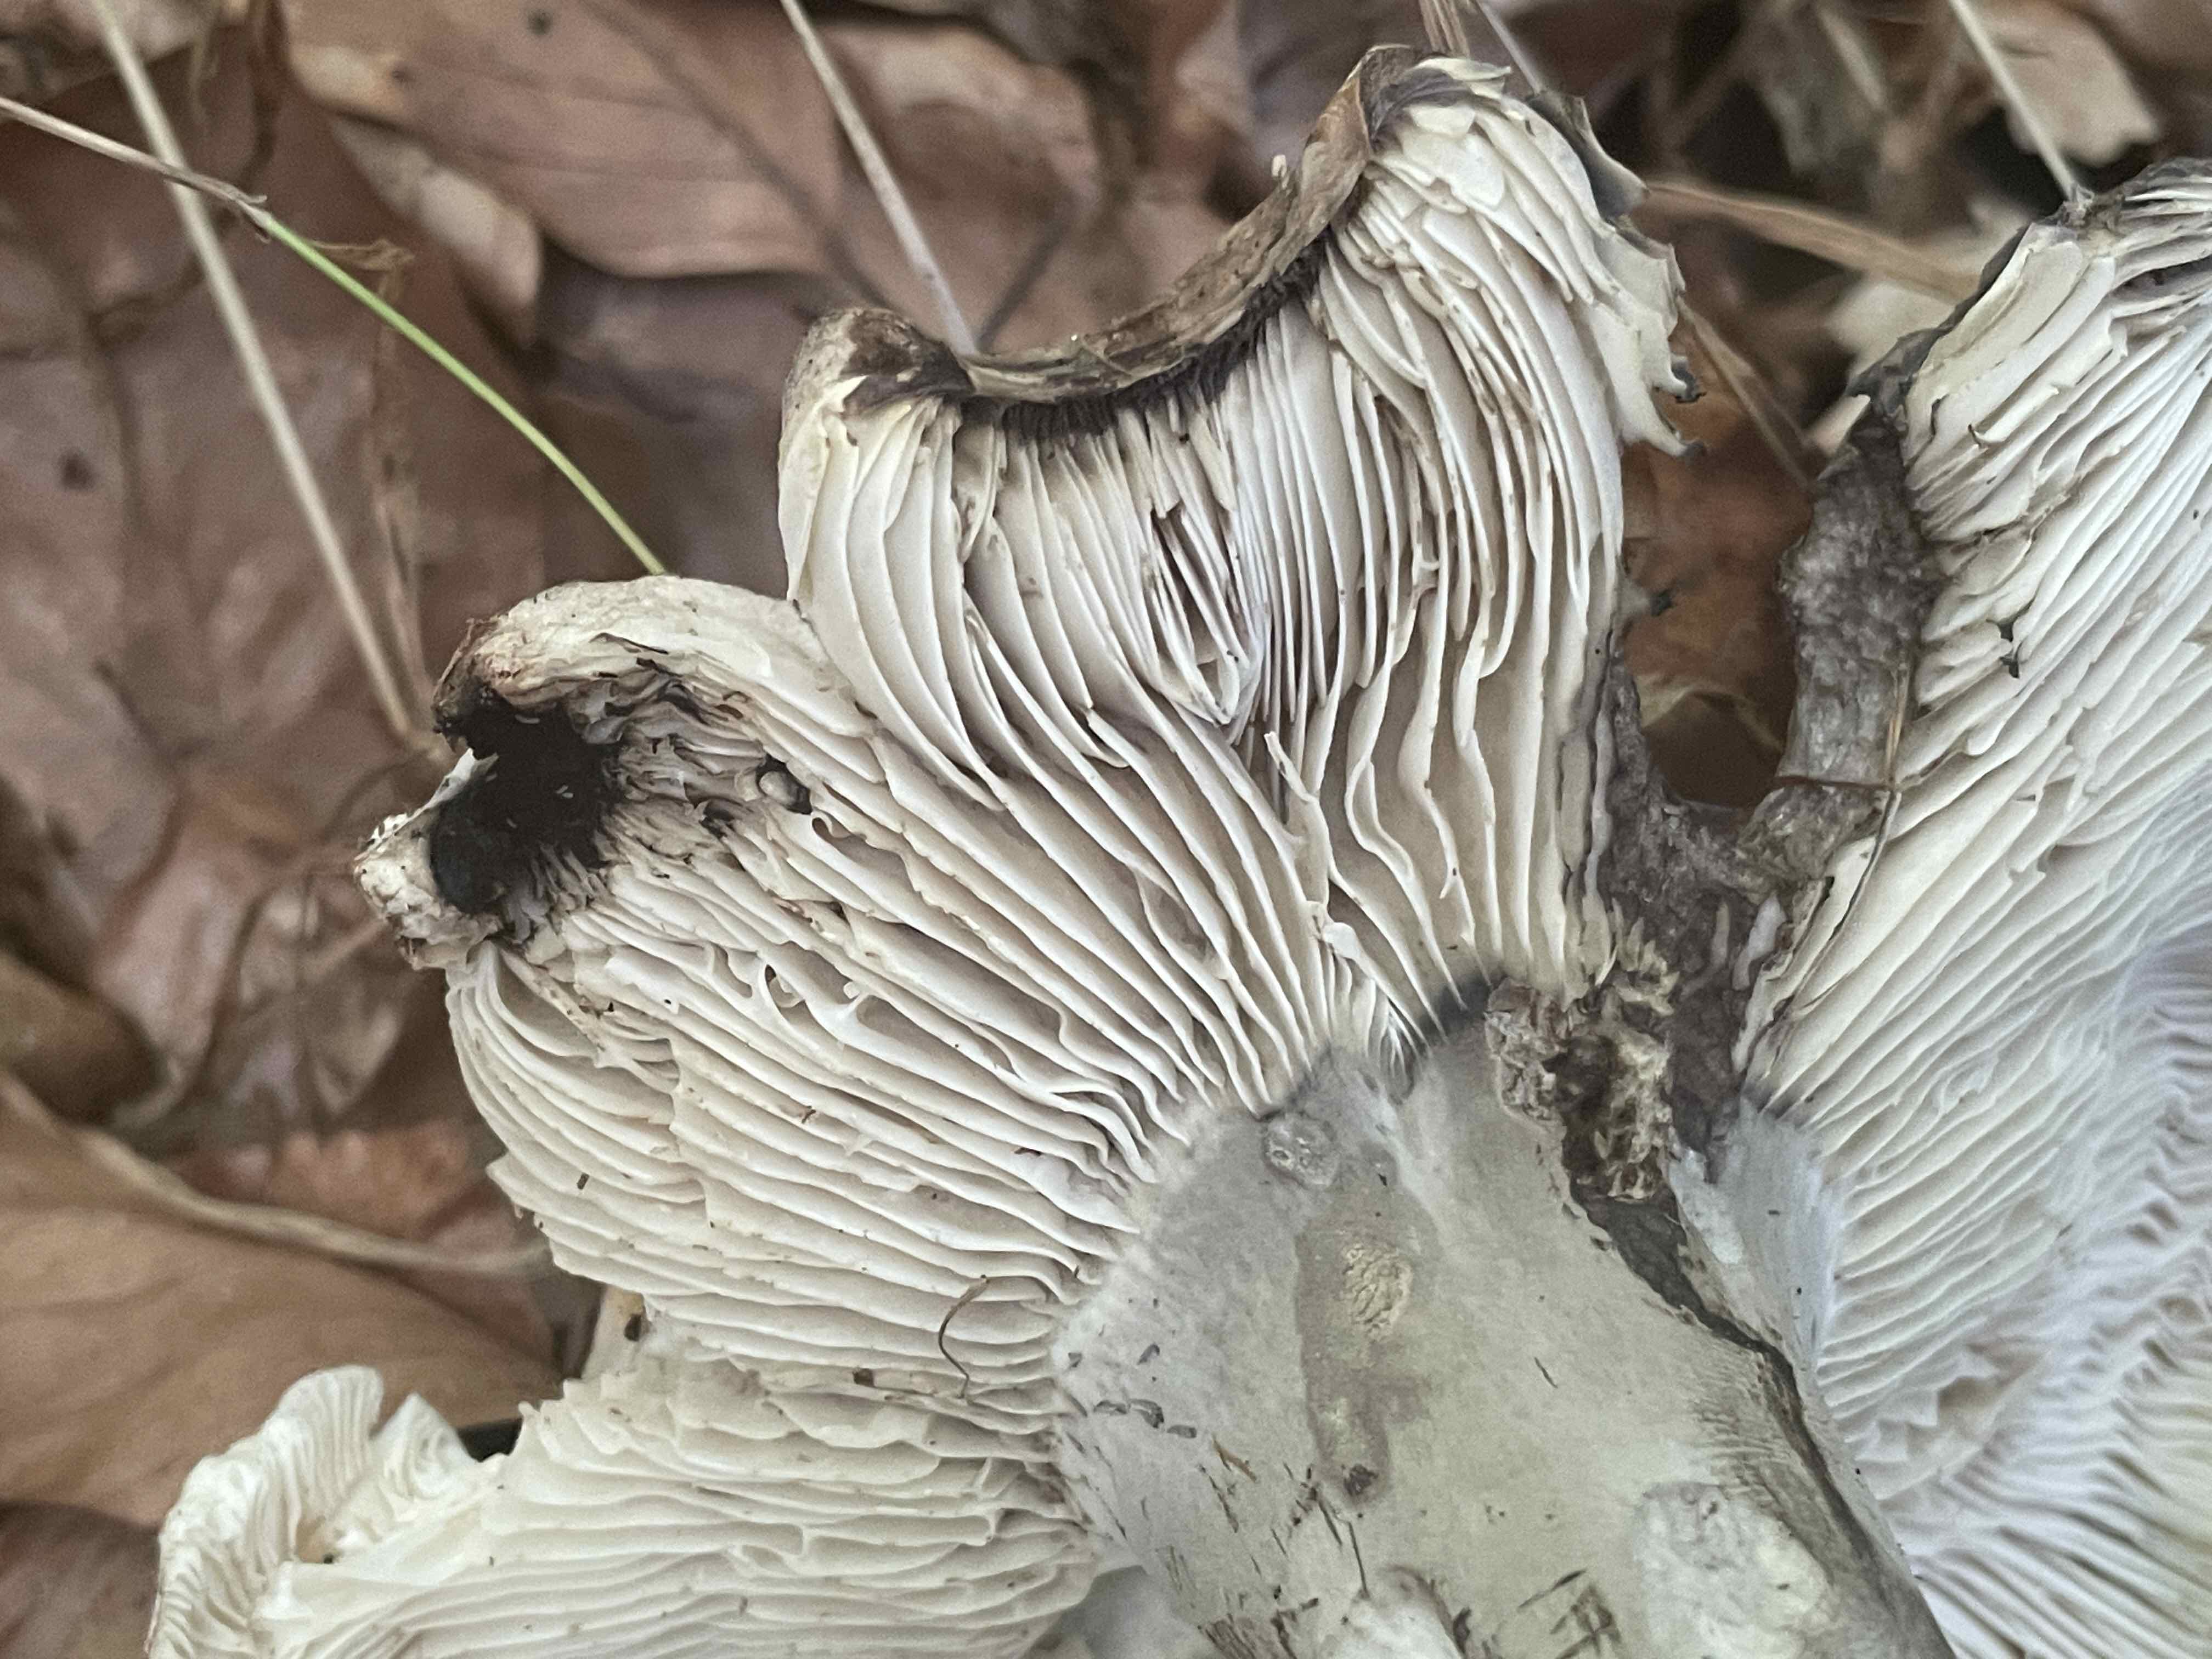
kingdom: Fungi
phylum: Basidiomycota
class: Agaricomycetes
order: Russulales
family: Russulaceae
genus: Russula
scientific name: Russula
